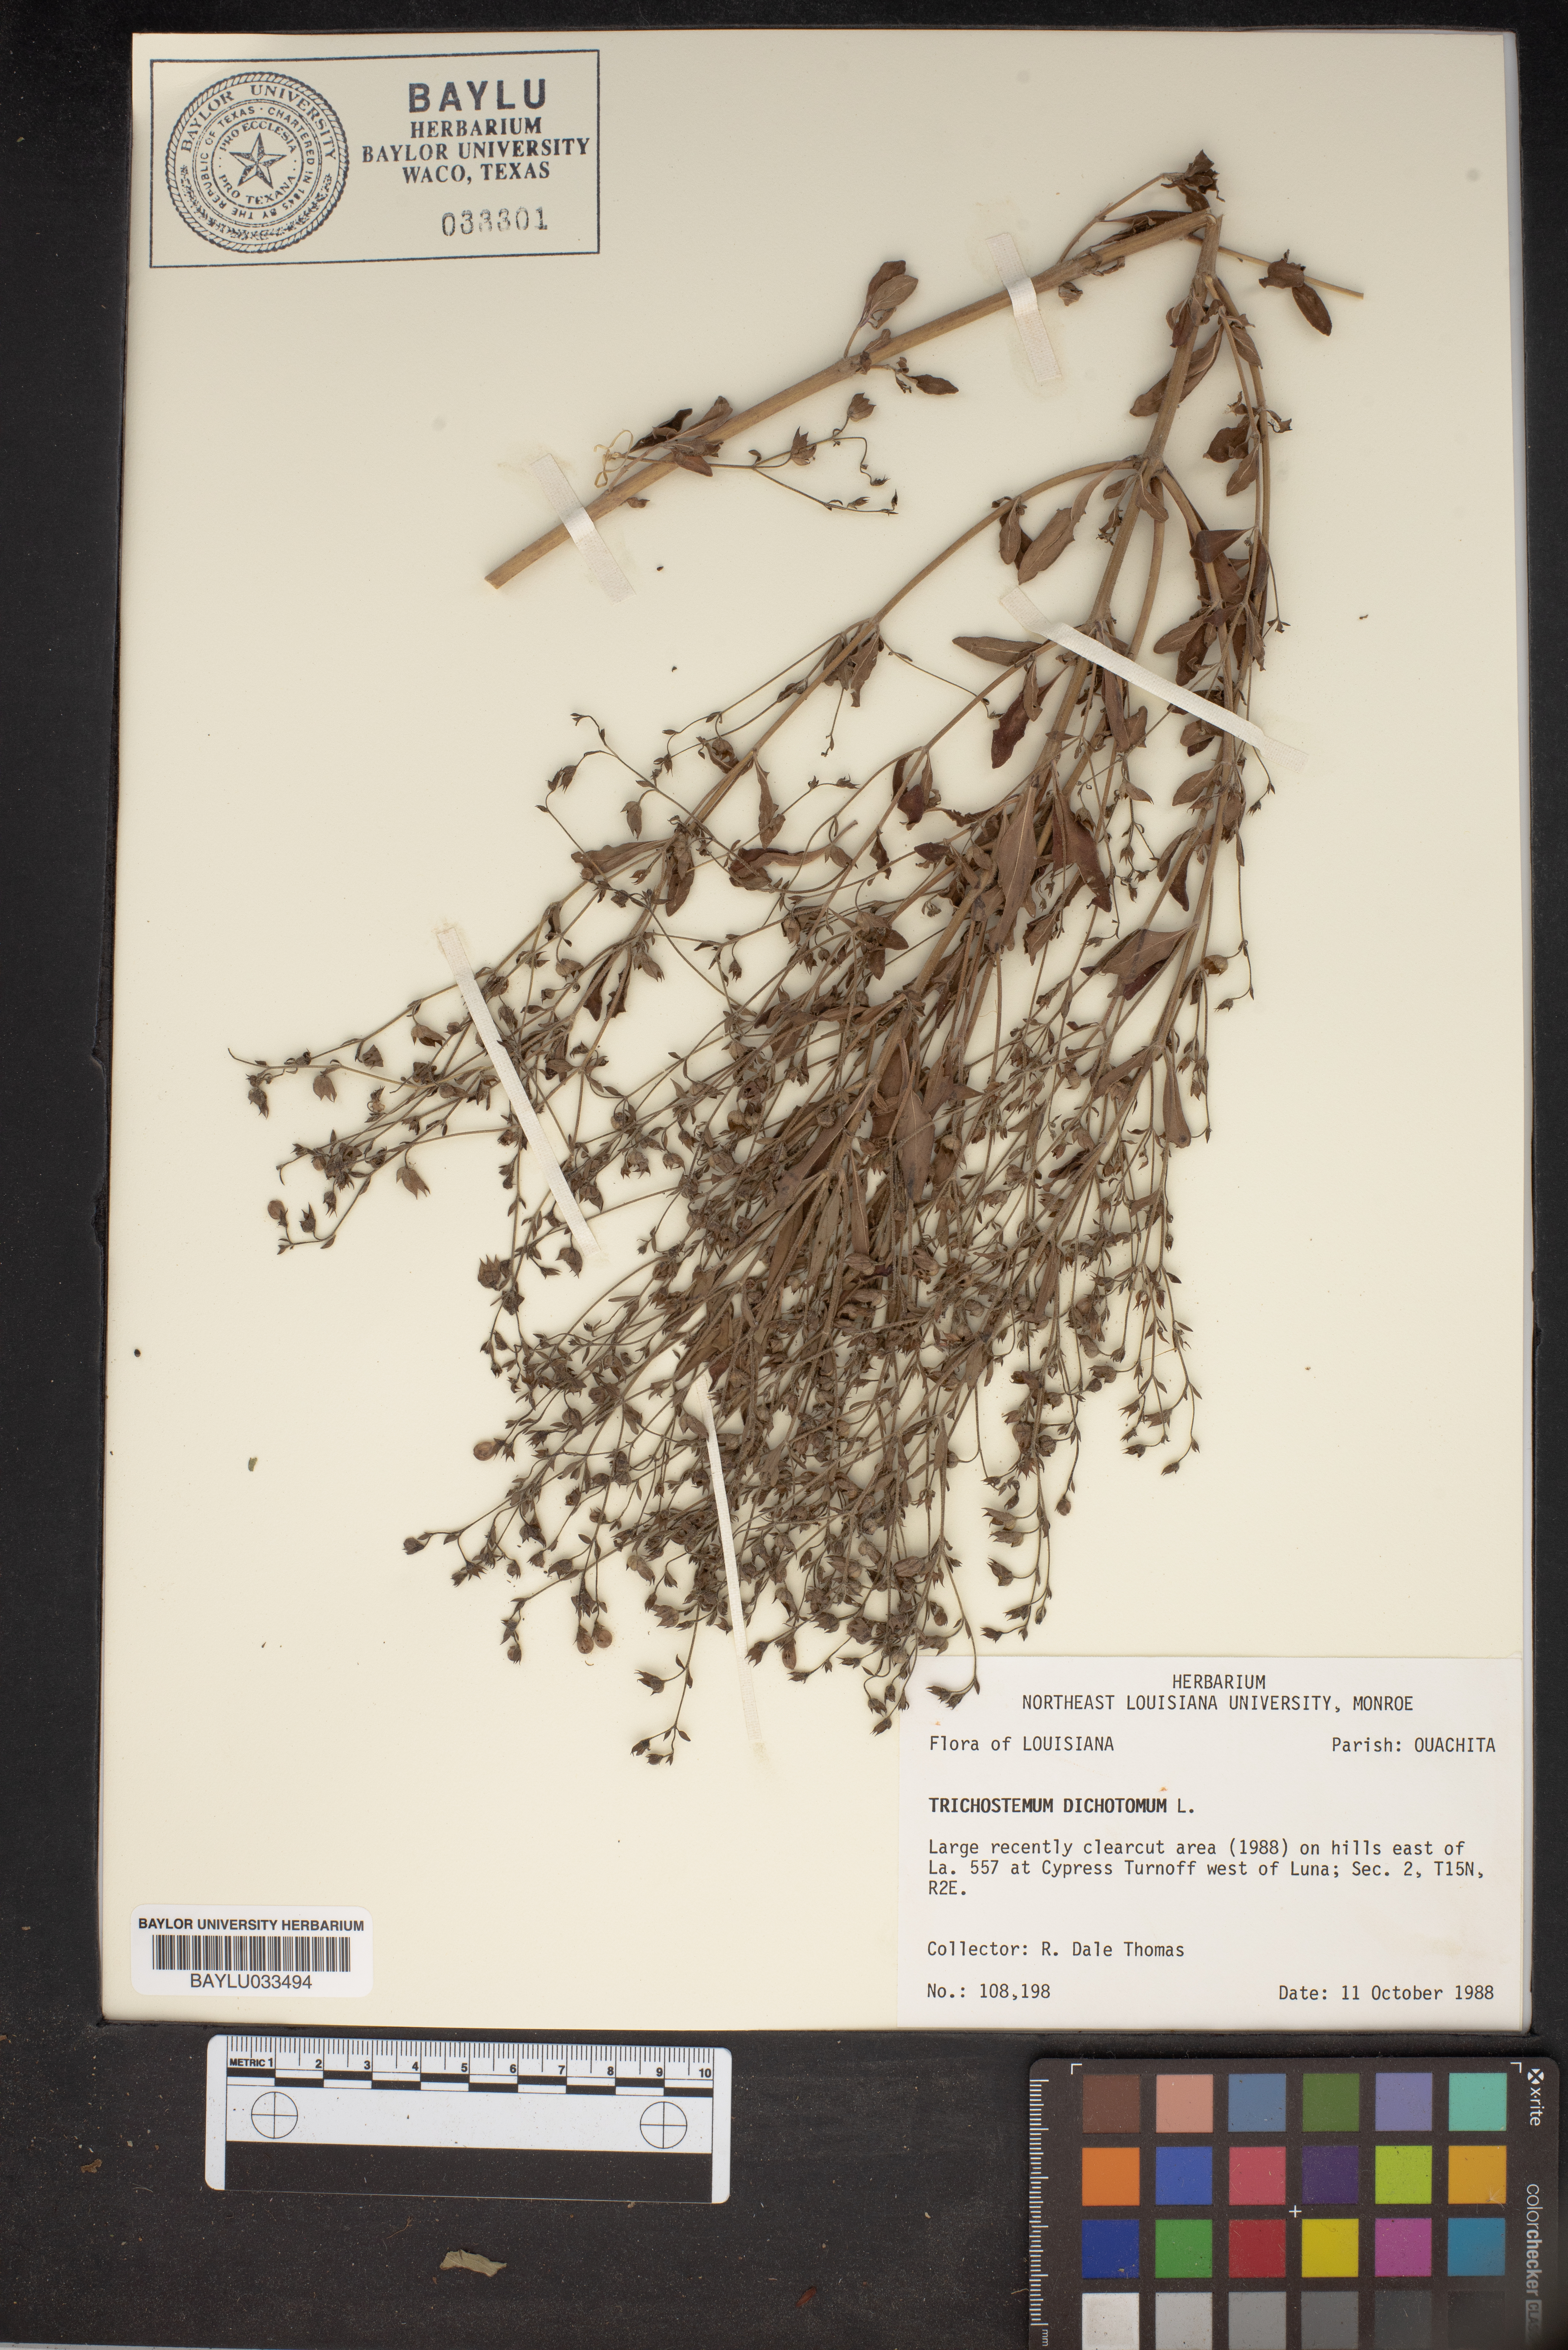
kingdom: Plantae
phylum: Tracheophyta
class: Magnoliopsida
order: Lamiales
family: Lamiaceae
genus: Trichostema
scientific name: Trichostema dichotomum
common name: Bastard pennyroyal
